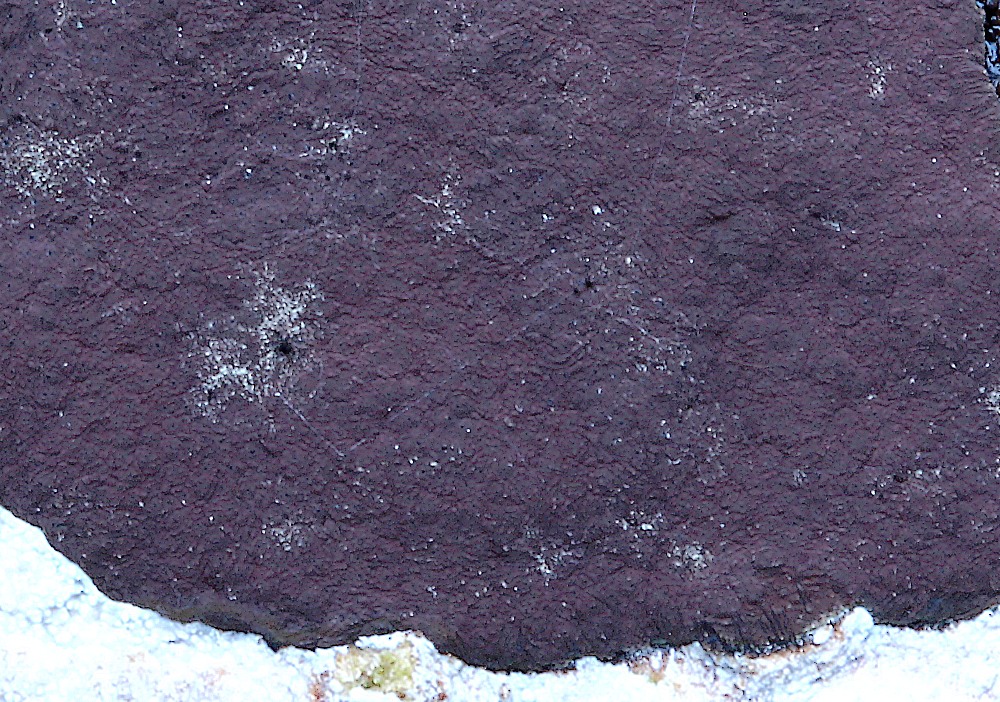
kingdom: Fungi
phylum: Ascomycota
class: Sordariomycetes
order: Xylariales
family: Hypoxylaceae
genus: Hypoxylon
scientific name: Hypoxylon petriniae
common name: nedsænket kulbær
